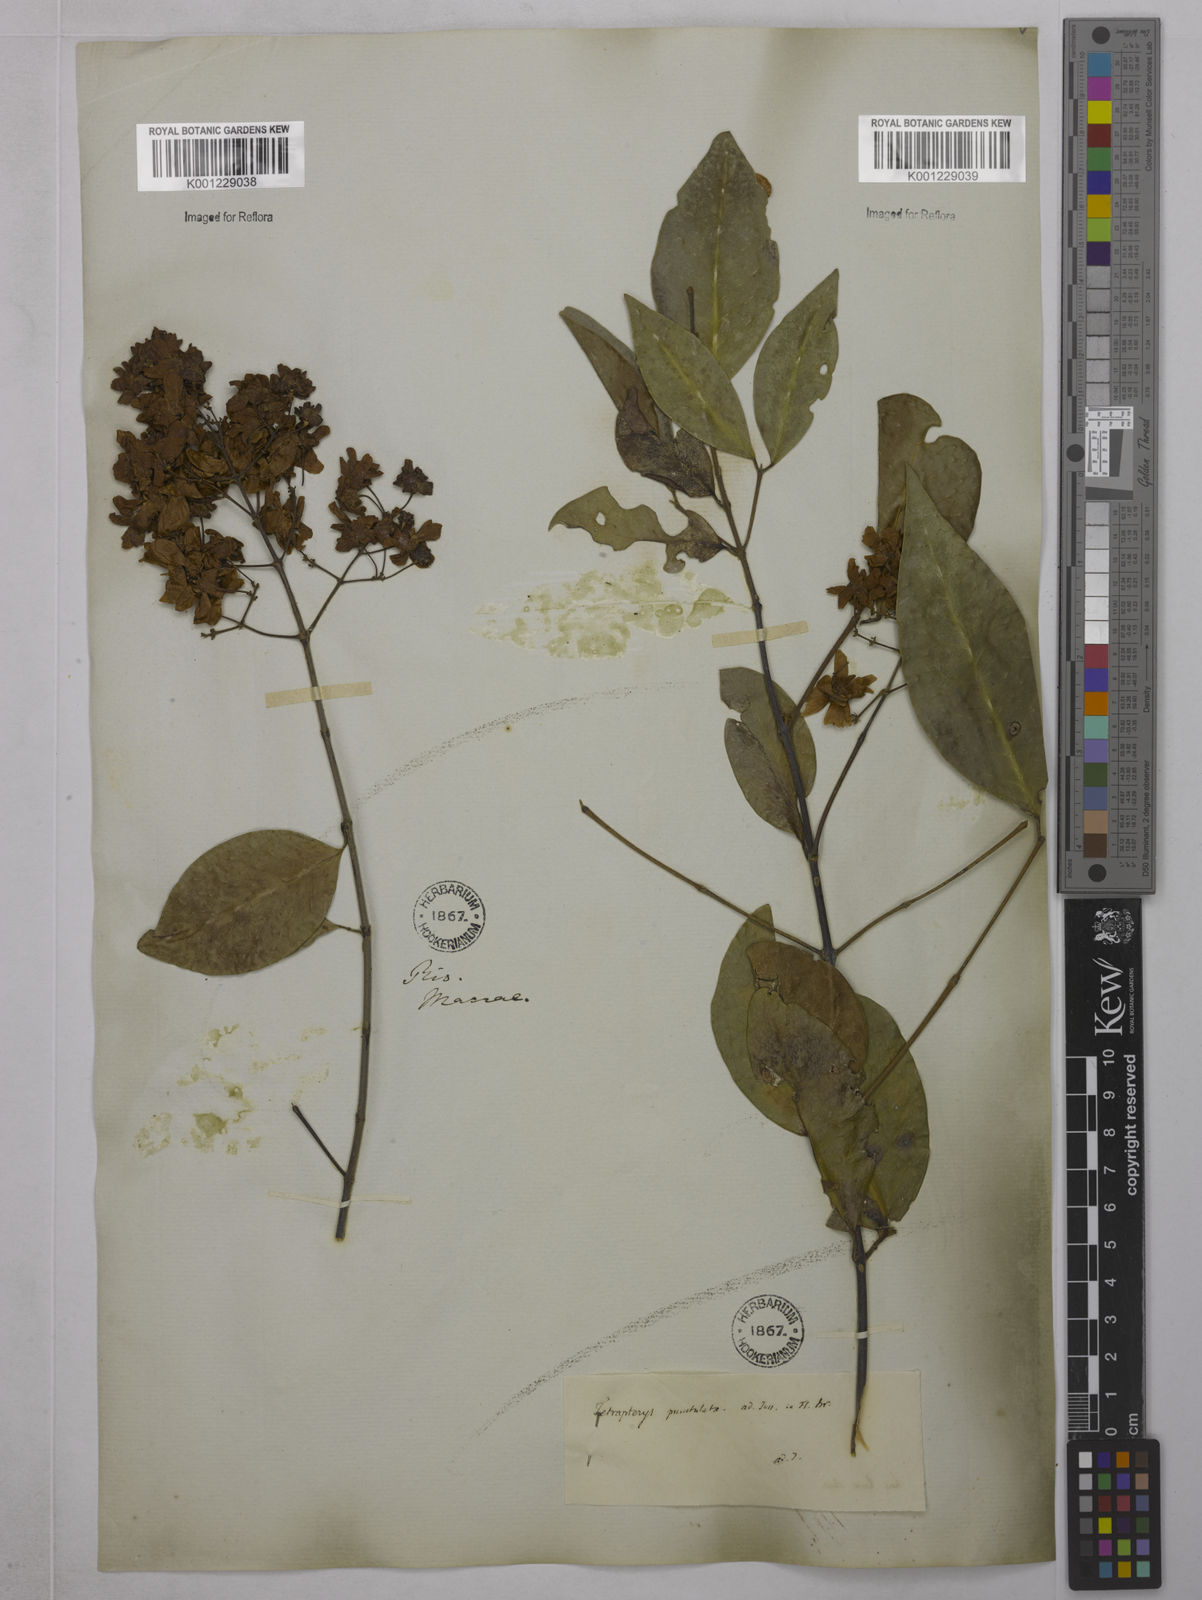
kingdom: Plantae
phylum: Tracheophyta
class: Magnoliopsida
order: Malpighiales
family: Malpighiaceae
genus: Niedenzuella
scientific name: Niedenzuella acutifolia
